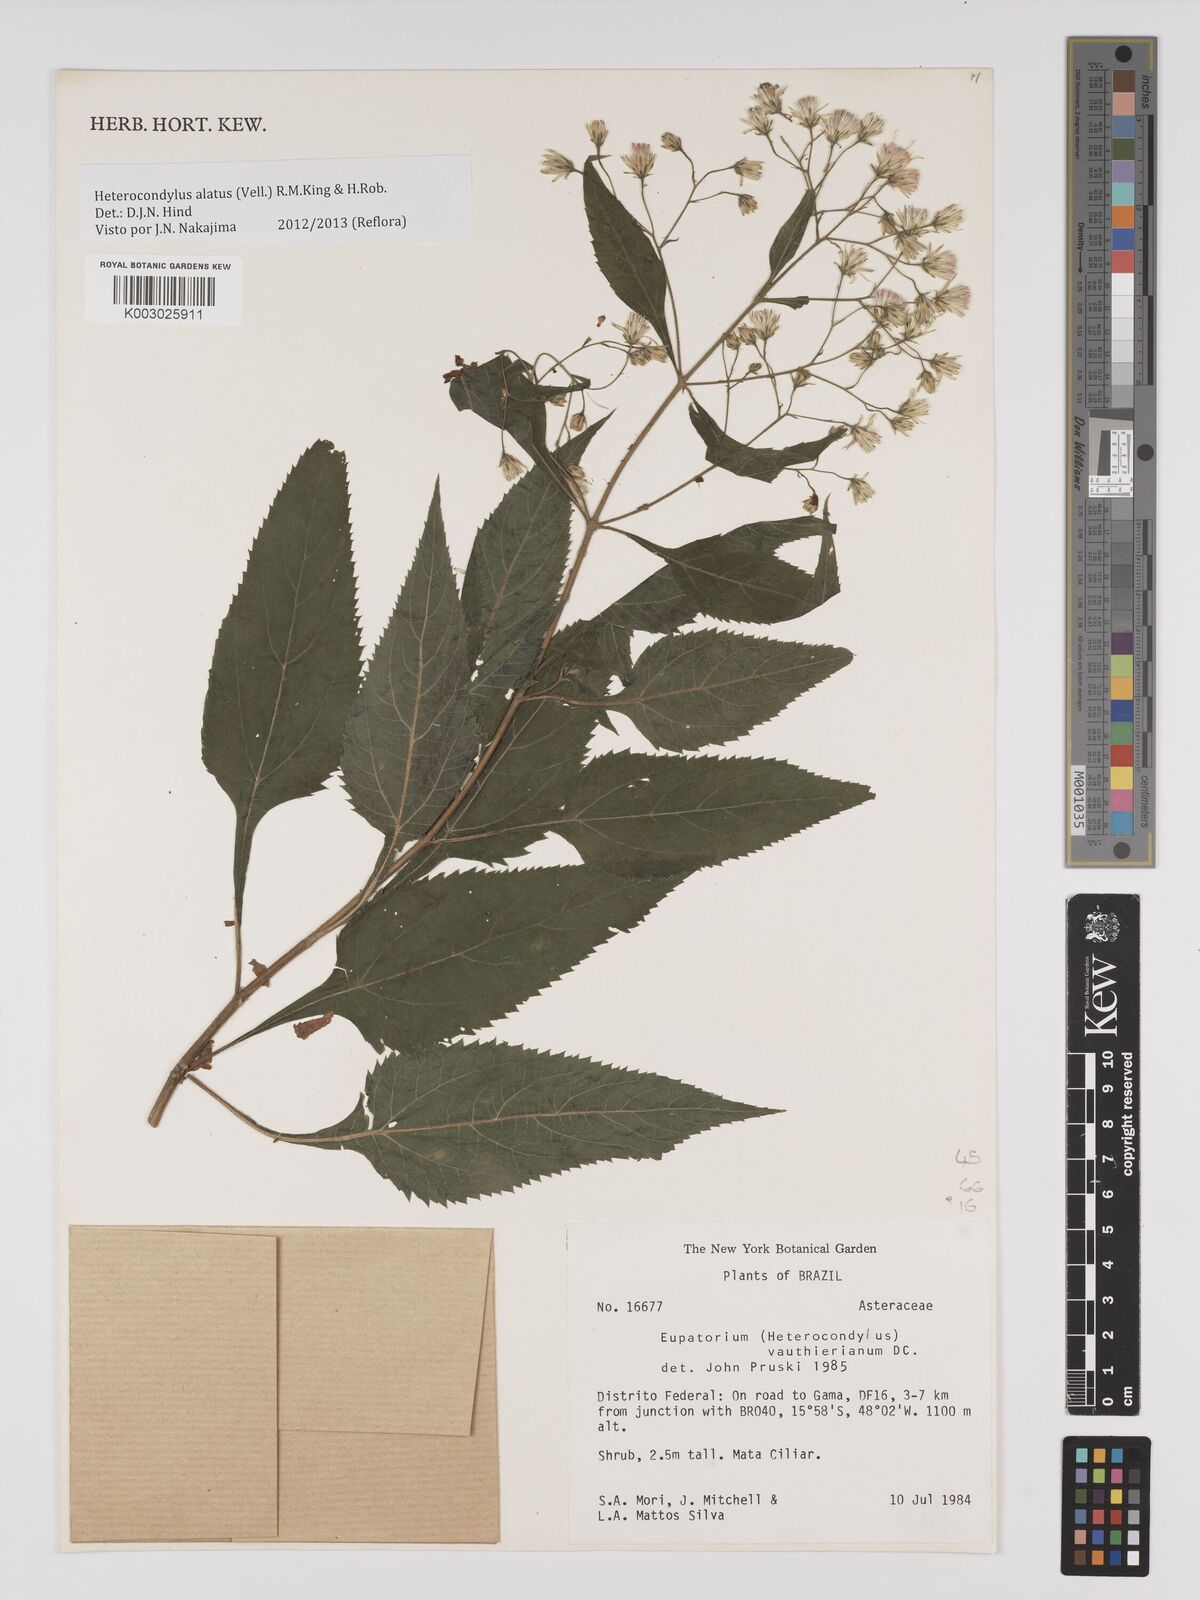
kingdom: Plantae
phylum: Tracheophyta
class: Magnoliopsida
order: Asterales
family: Asteraceae
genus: Heterocondylus
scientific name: Heterocondylus alatus
